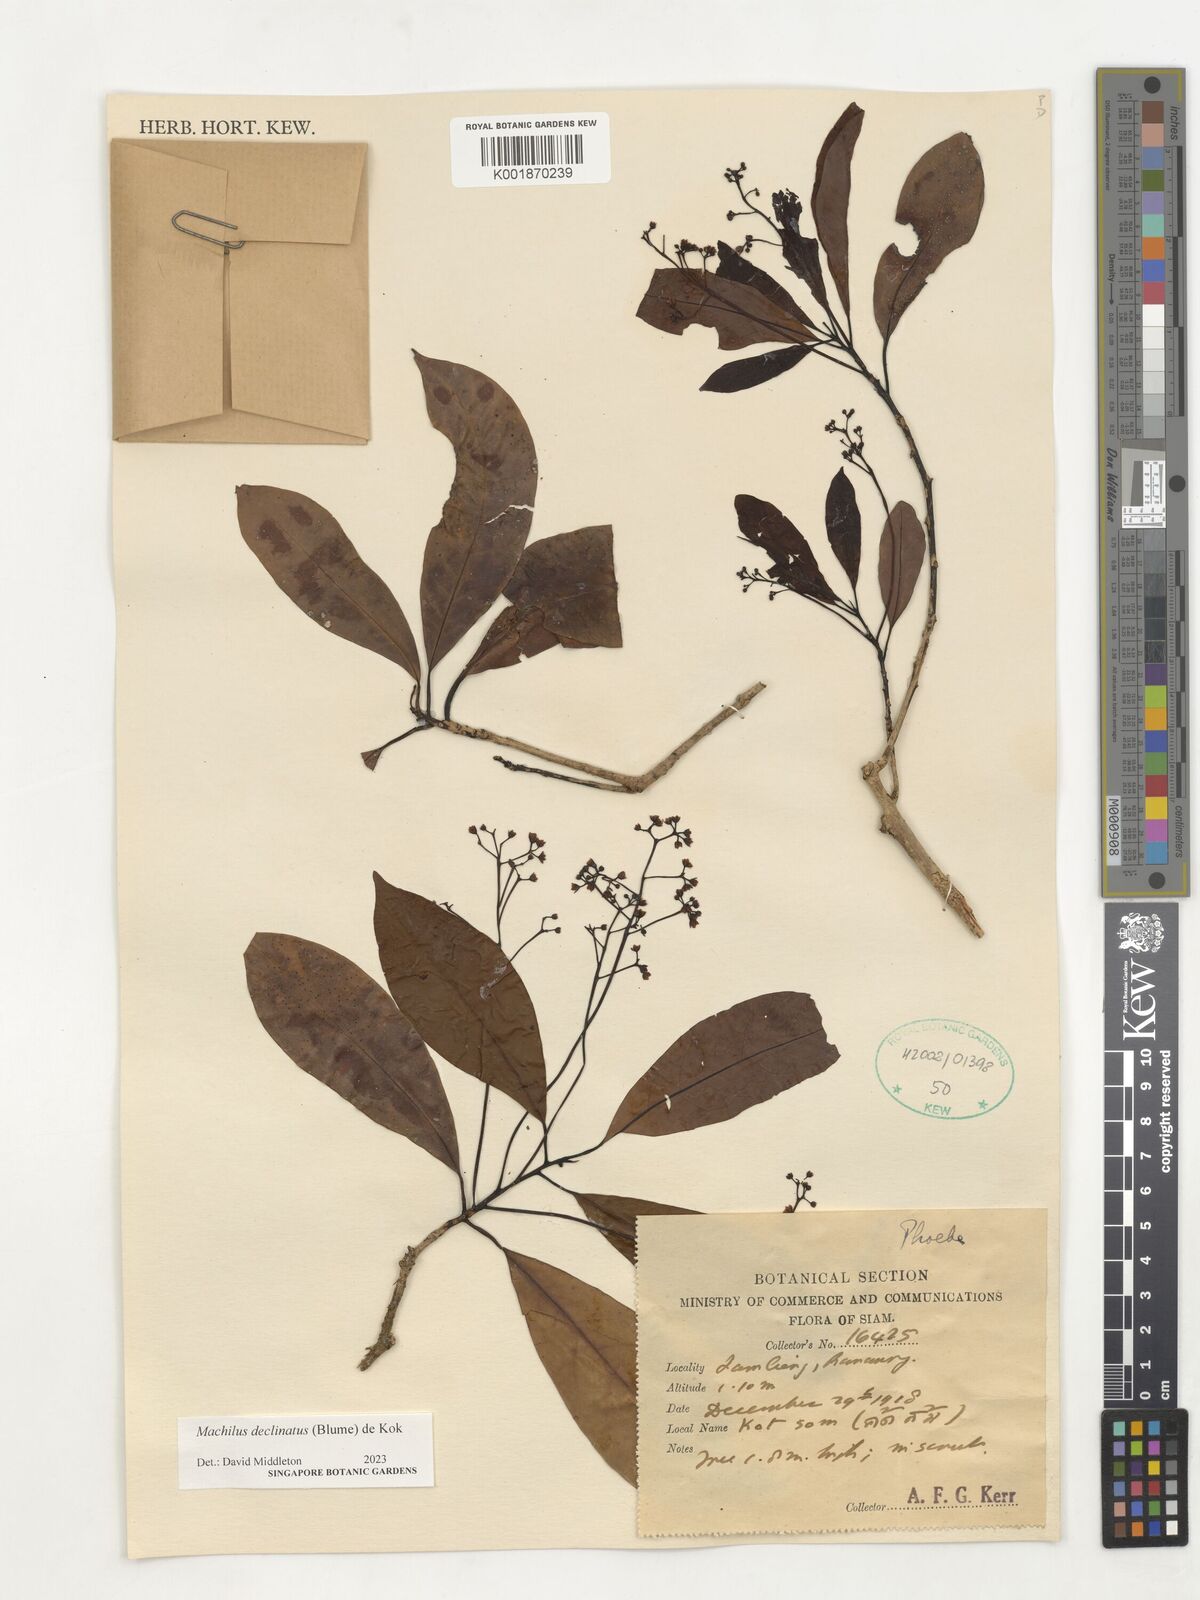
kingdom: Plantae
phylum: Tracheophyta
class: Magnoliopsida
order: Laurales
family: Lauraceae
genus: Machilus
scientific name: Machilus declinata
